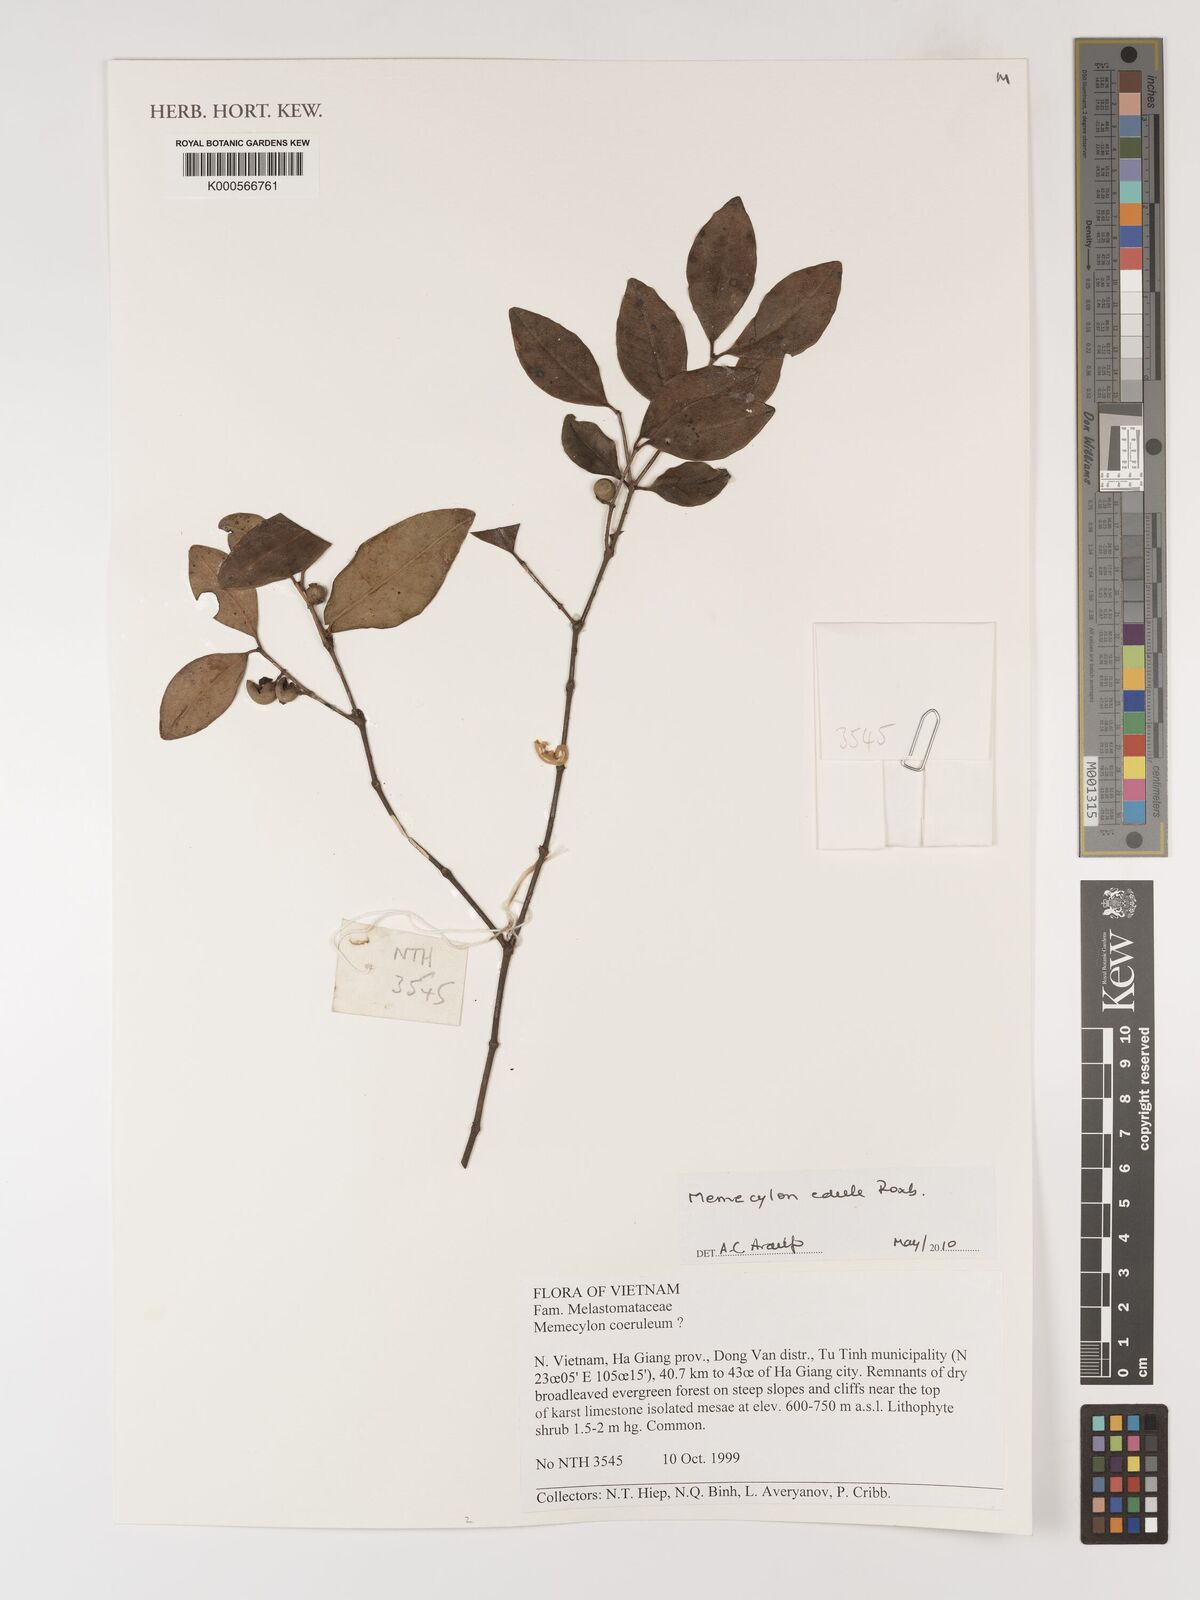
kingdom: Plantae
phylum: Tracheophyta
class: Magnoliopsida
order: Myrtales
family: Melastomataceae
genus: Memecylon
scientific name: Memecylon edule
